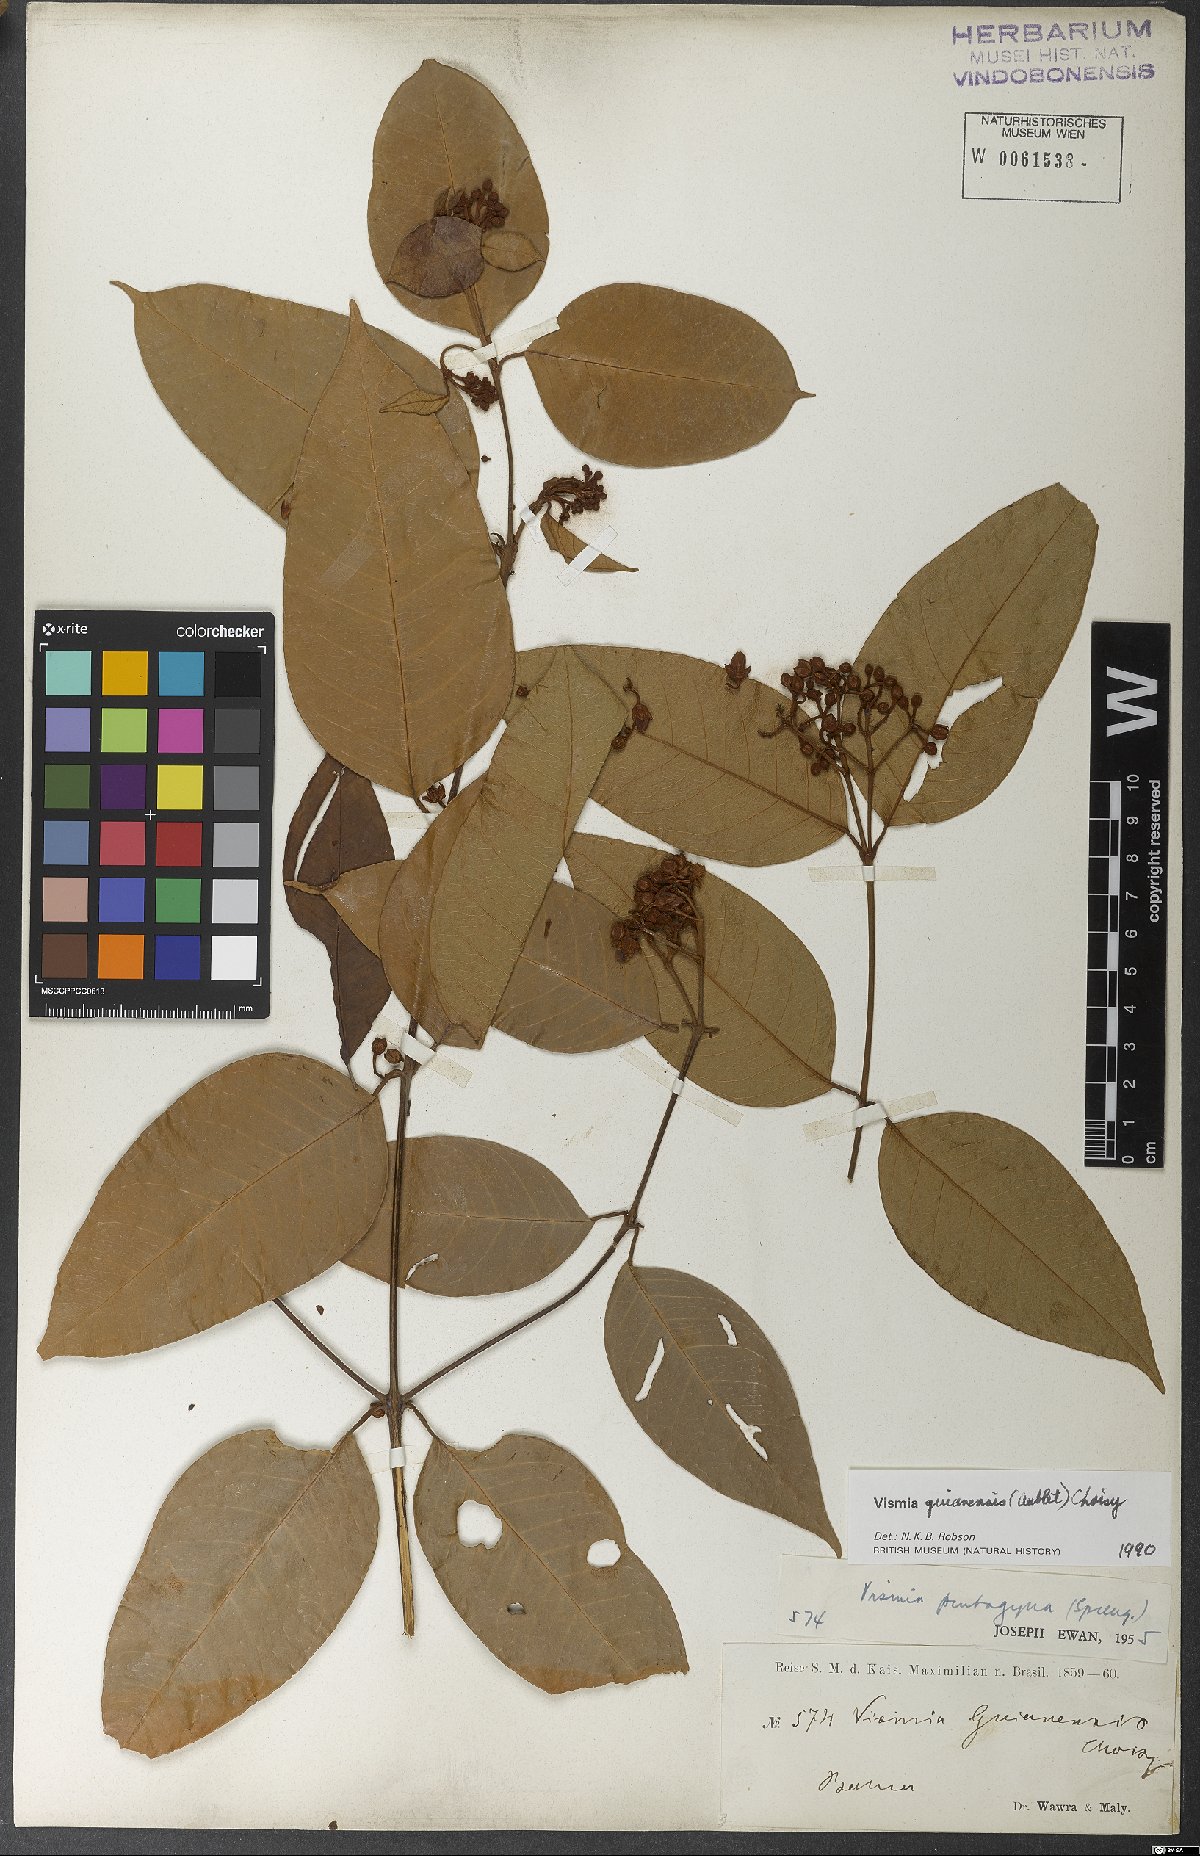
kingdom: Plantae
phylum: Tracheophyta
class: Magnoliopsida
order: Malpighiales
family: Hypericaceae
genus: Vismia
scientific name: Vismia guianensis
